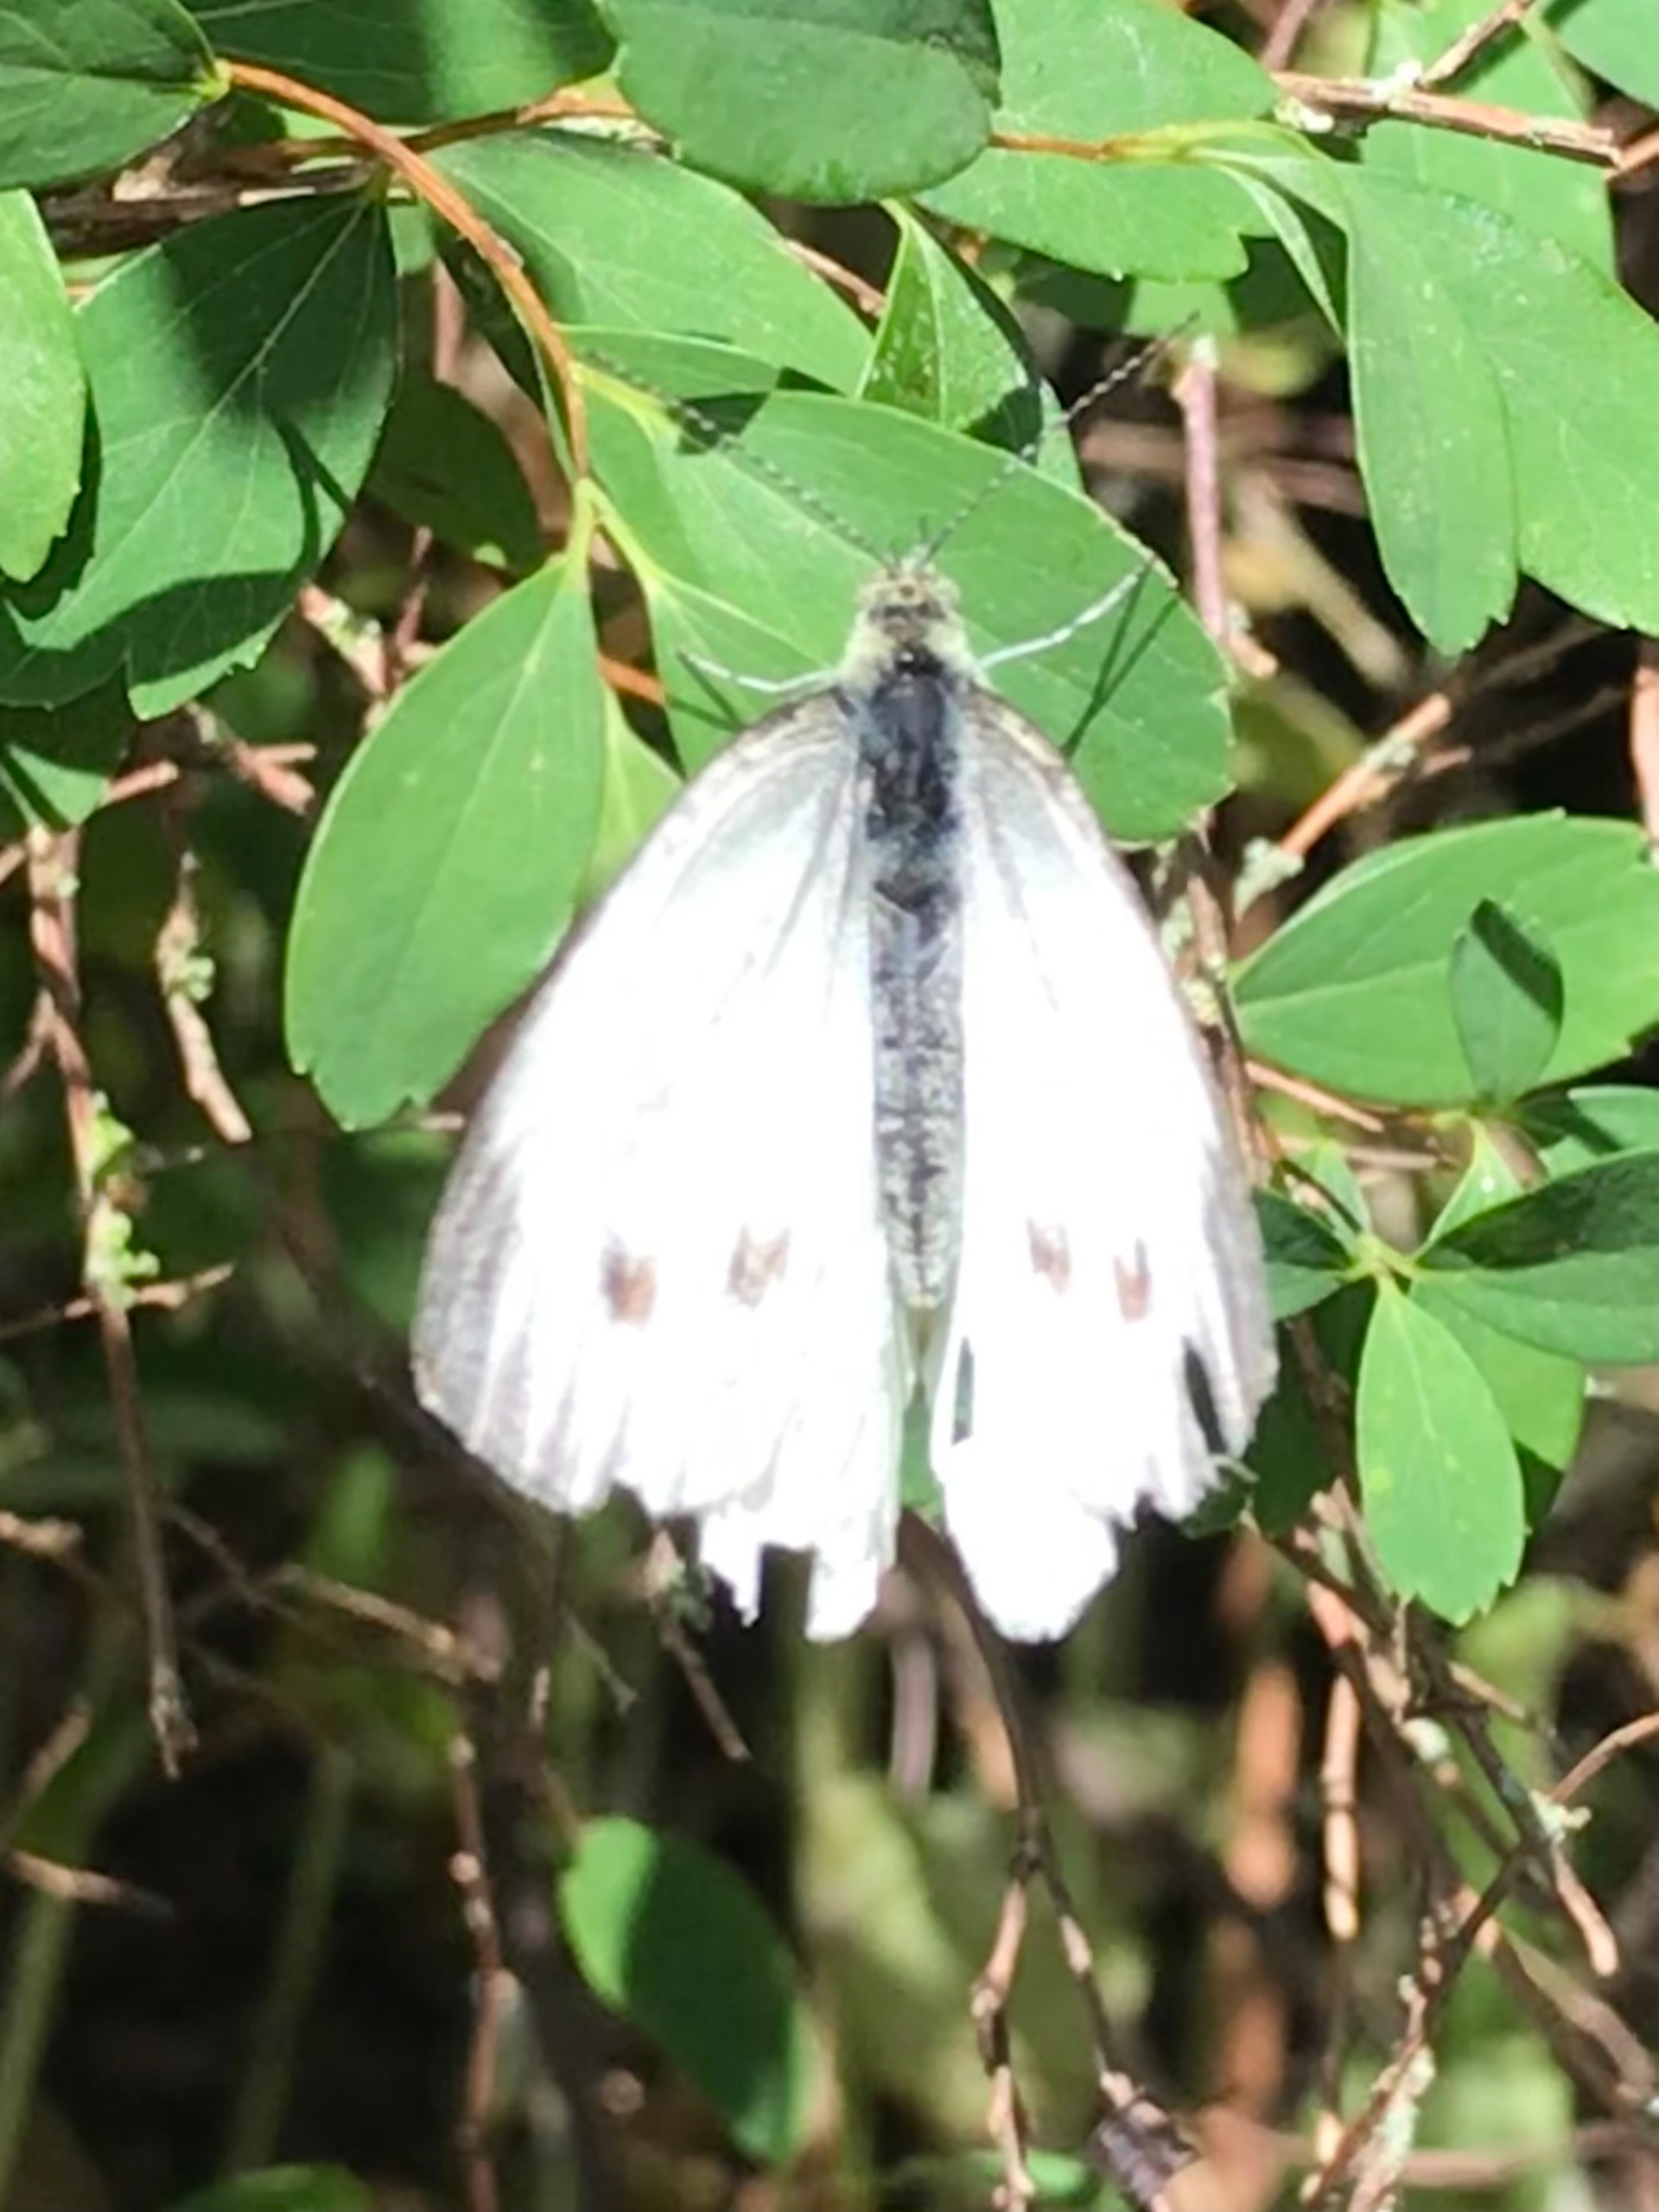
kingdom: Animalia
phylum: Arthropoda
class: Insecta
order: Lepidoptera
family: Pieridae
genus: Pieris
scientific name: Pieris napi
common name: Grønåret kålsommerfugl
